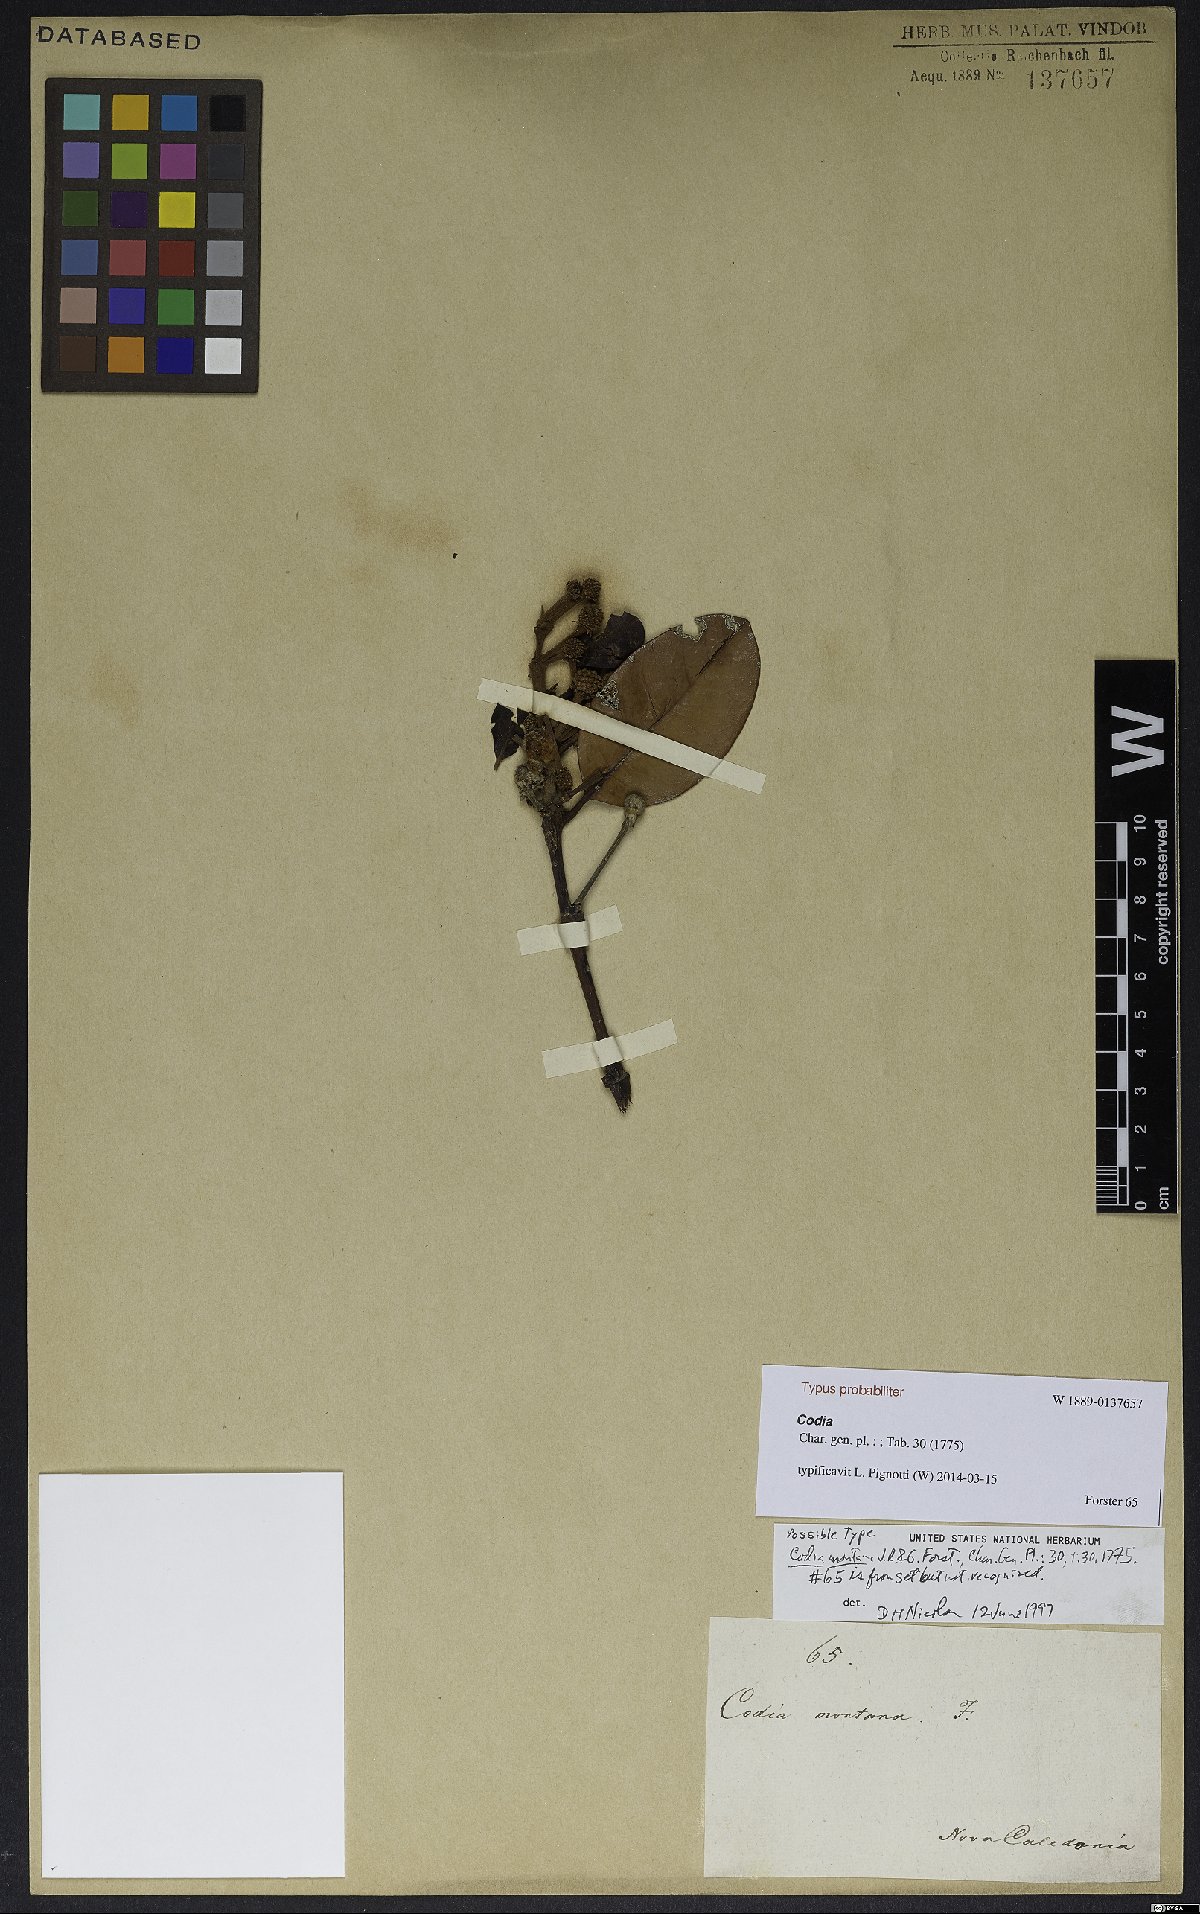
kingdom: Plantae
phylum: Tracheophyta
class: Magnoliopsida
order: Oxalidales
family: Cunoniaceae
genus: Codia
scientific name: Codia montana
